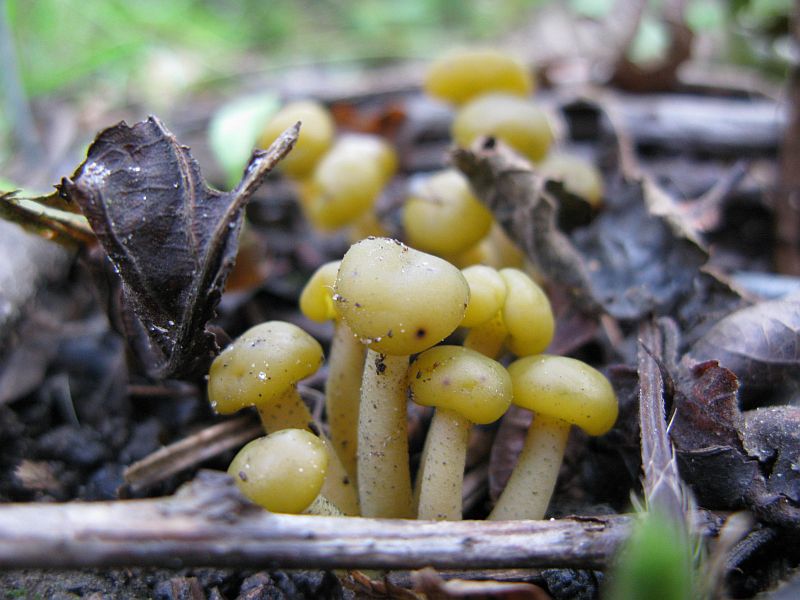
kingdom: Fungi
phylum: Ascomycota
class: Leotiomycetes
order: Leotiales
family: Leotiaceae
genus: Leotia
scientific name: Leotia lubrica
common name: ravsvamp
